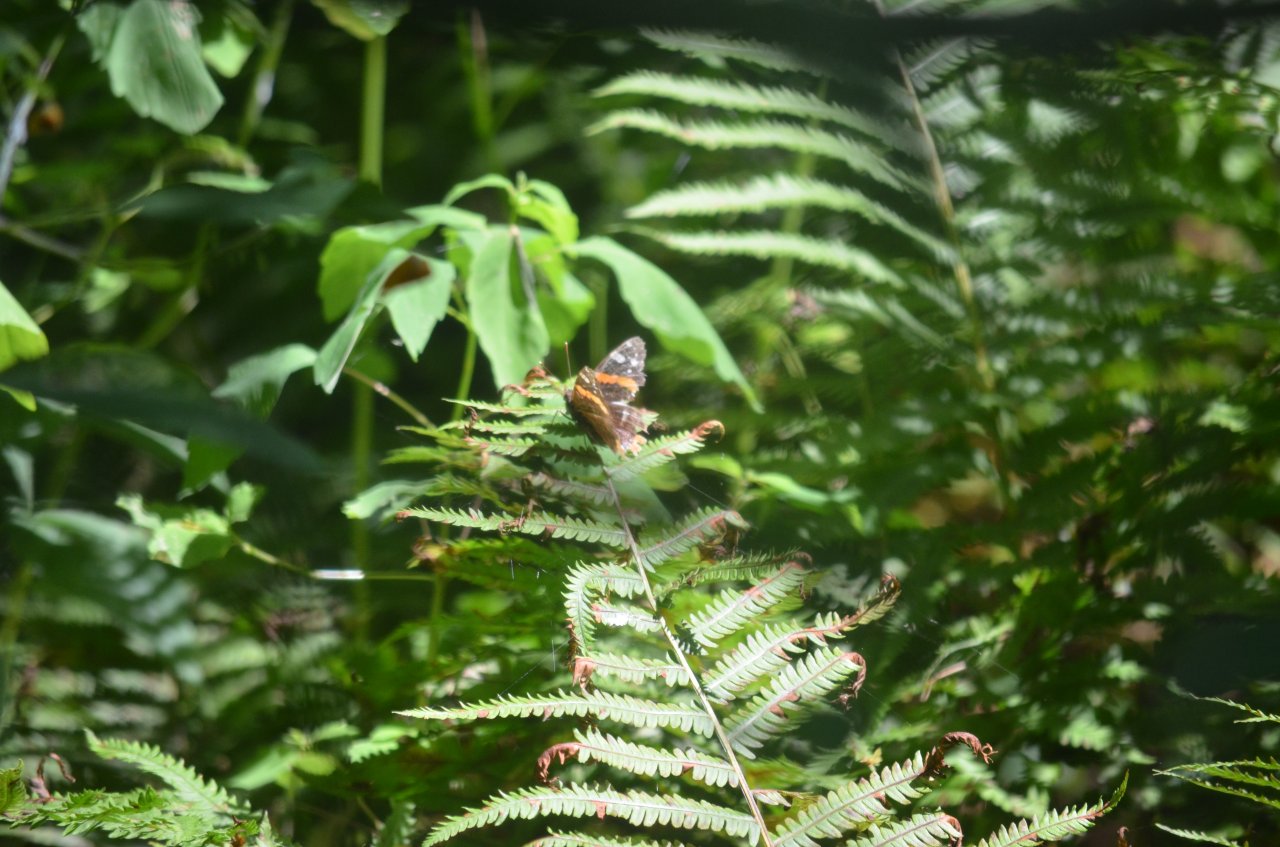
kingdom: Animalia
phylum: Arthropoda
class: Insecta
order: Lepidoptera
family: Nymphalidae
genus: Vanessa
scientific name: Vanessa atalanta
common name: Red Admiral
